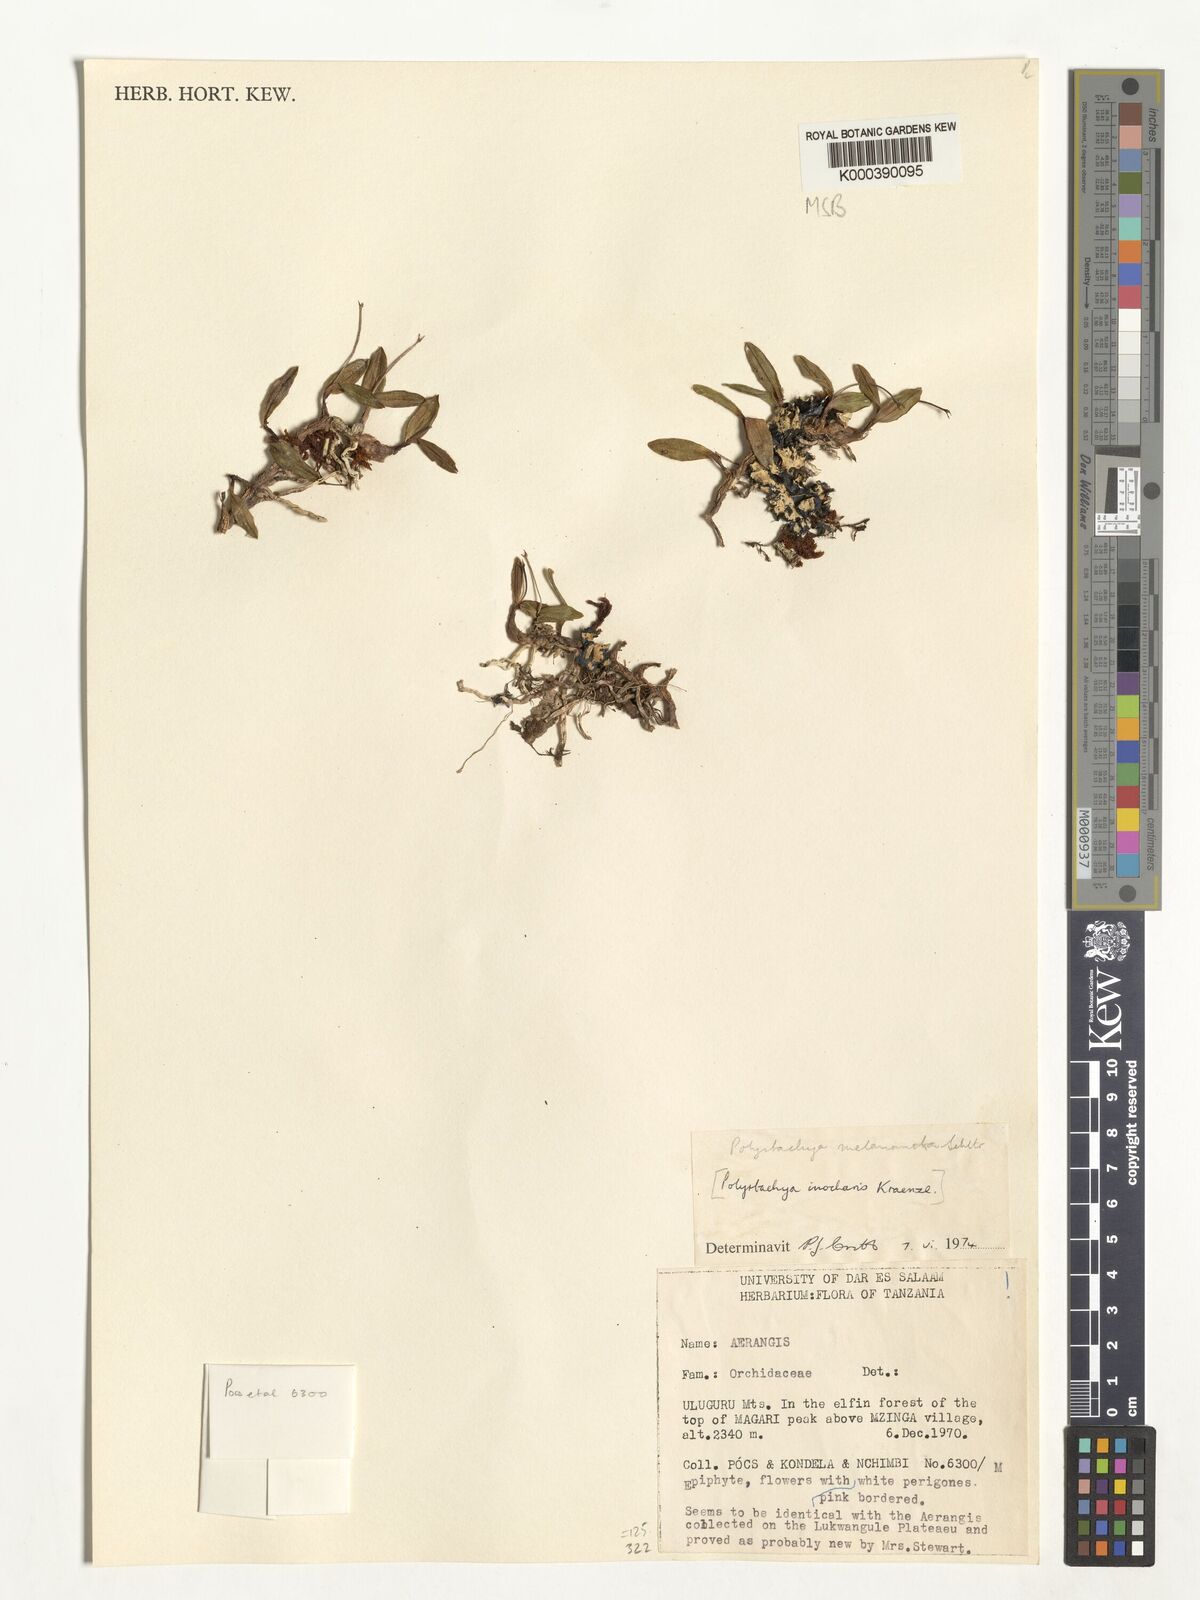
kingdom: Plantae
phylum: Tracheophyta
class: Liliopsida
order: Asparagales
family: Orchidaceae
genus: Polystachya
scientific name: Polystachya melanantha
